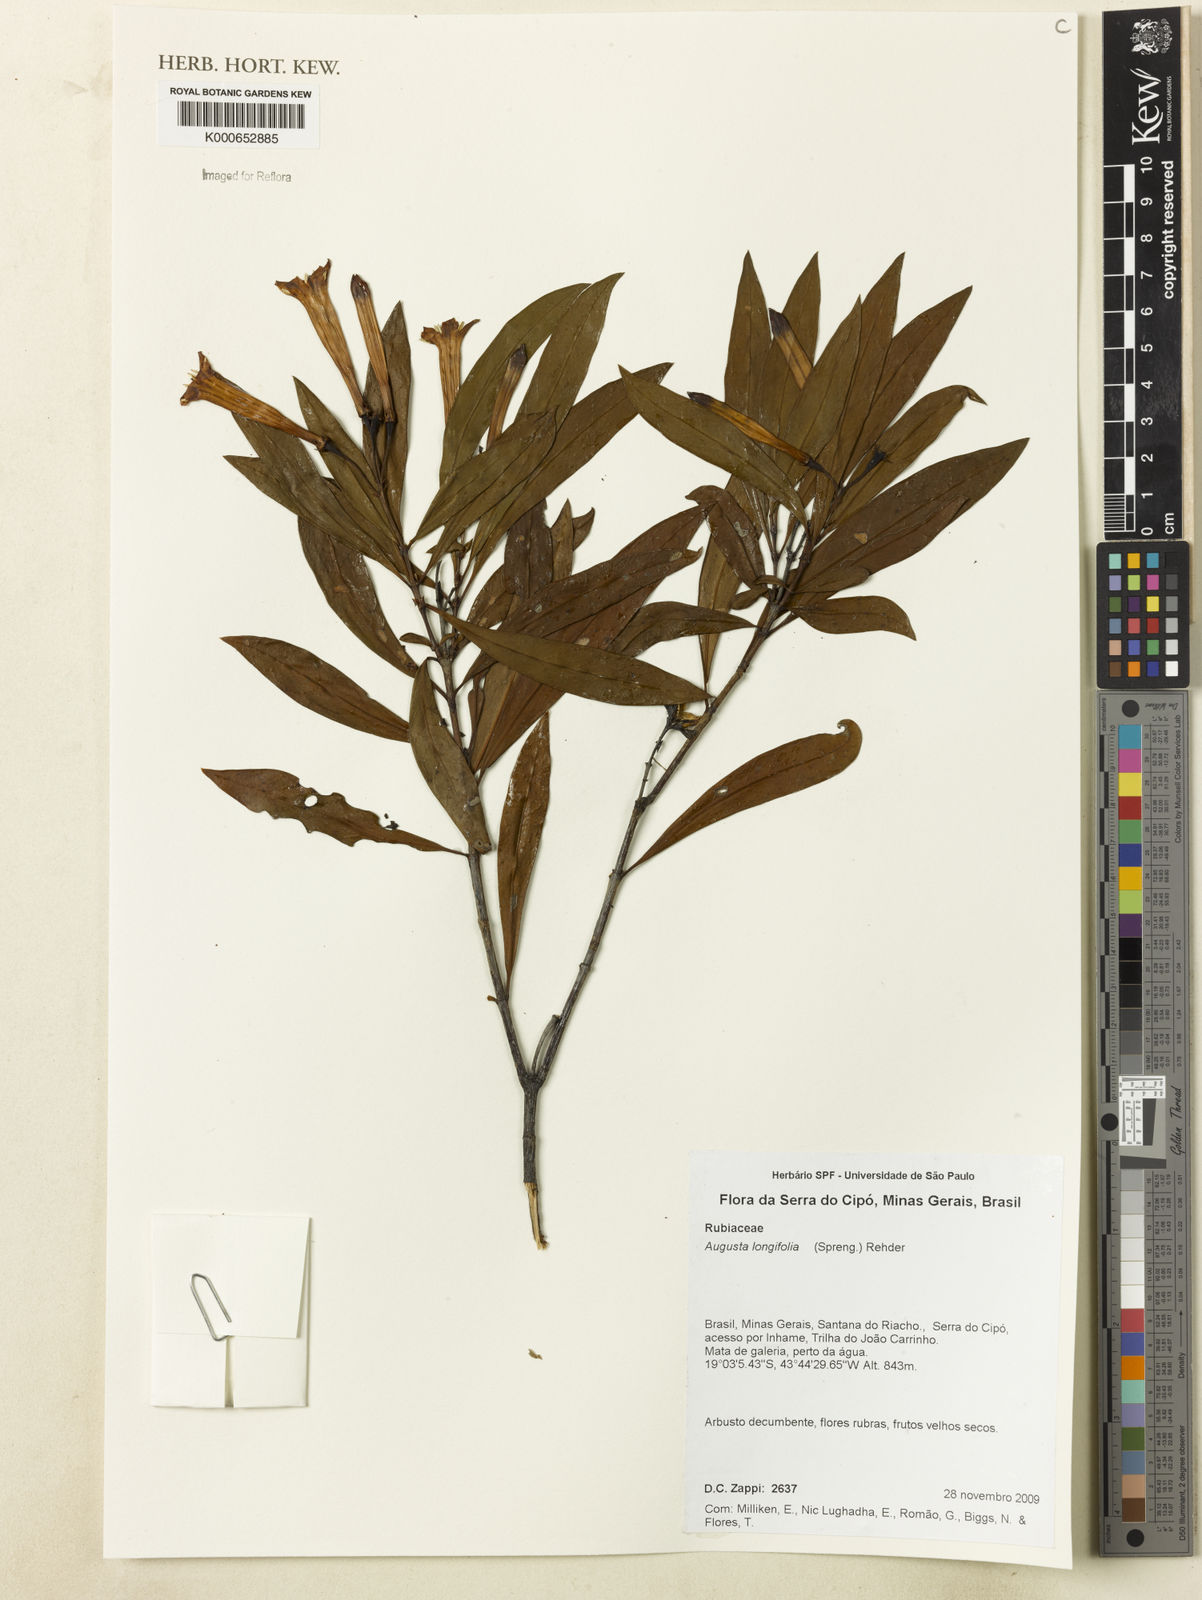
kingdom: Plantae
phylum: Tracheophyta
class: Magnoliopsida
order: Gentianales
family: Rubiaceae
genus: Augusta
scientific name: Augusta longifolia
